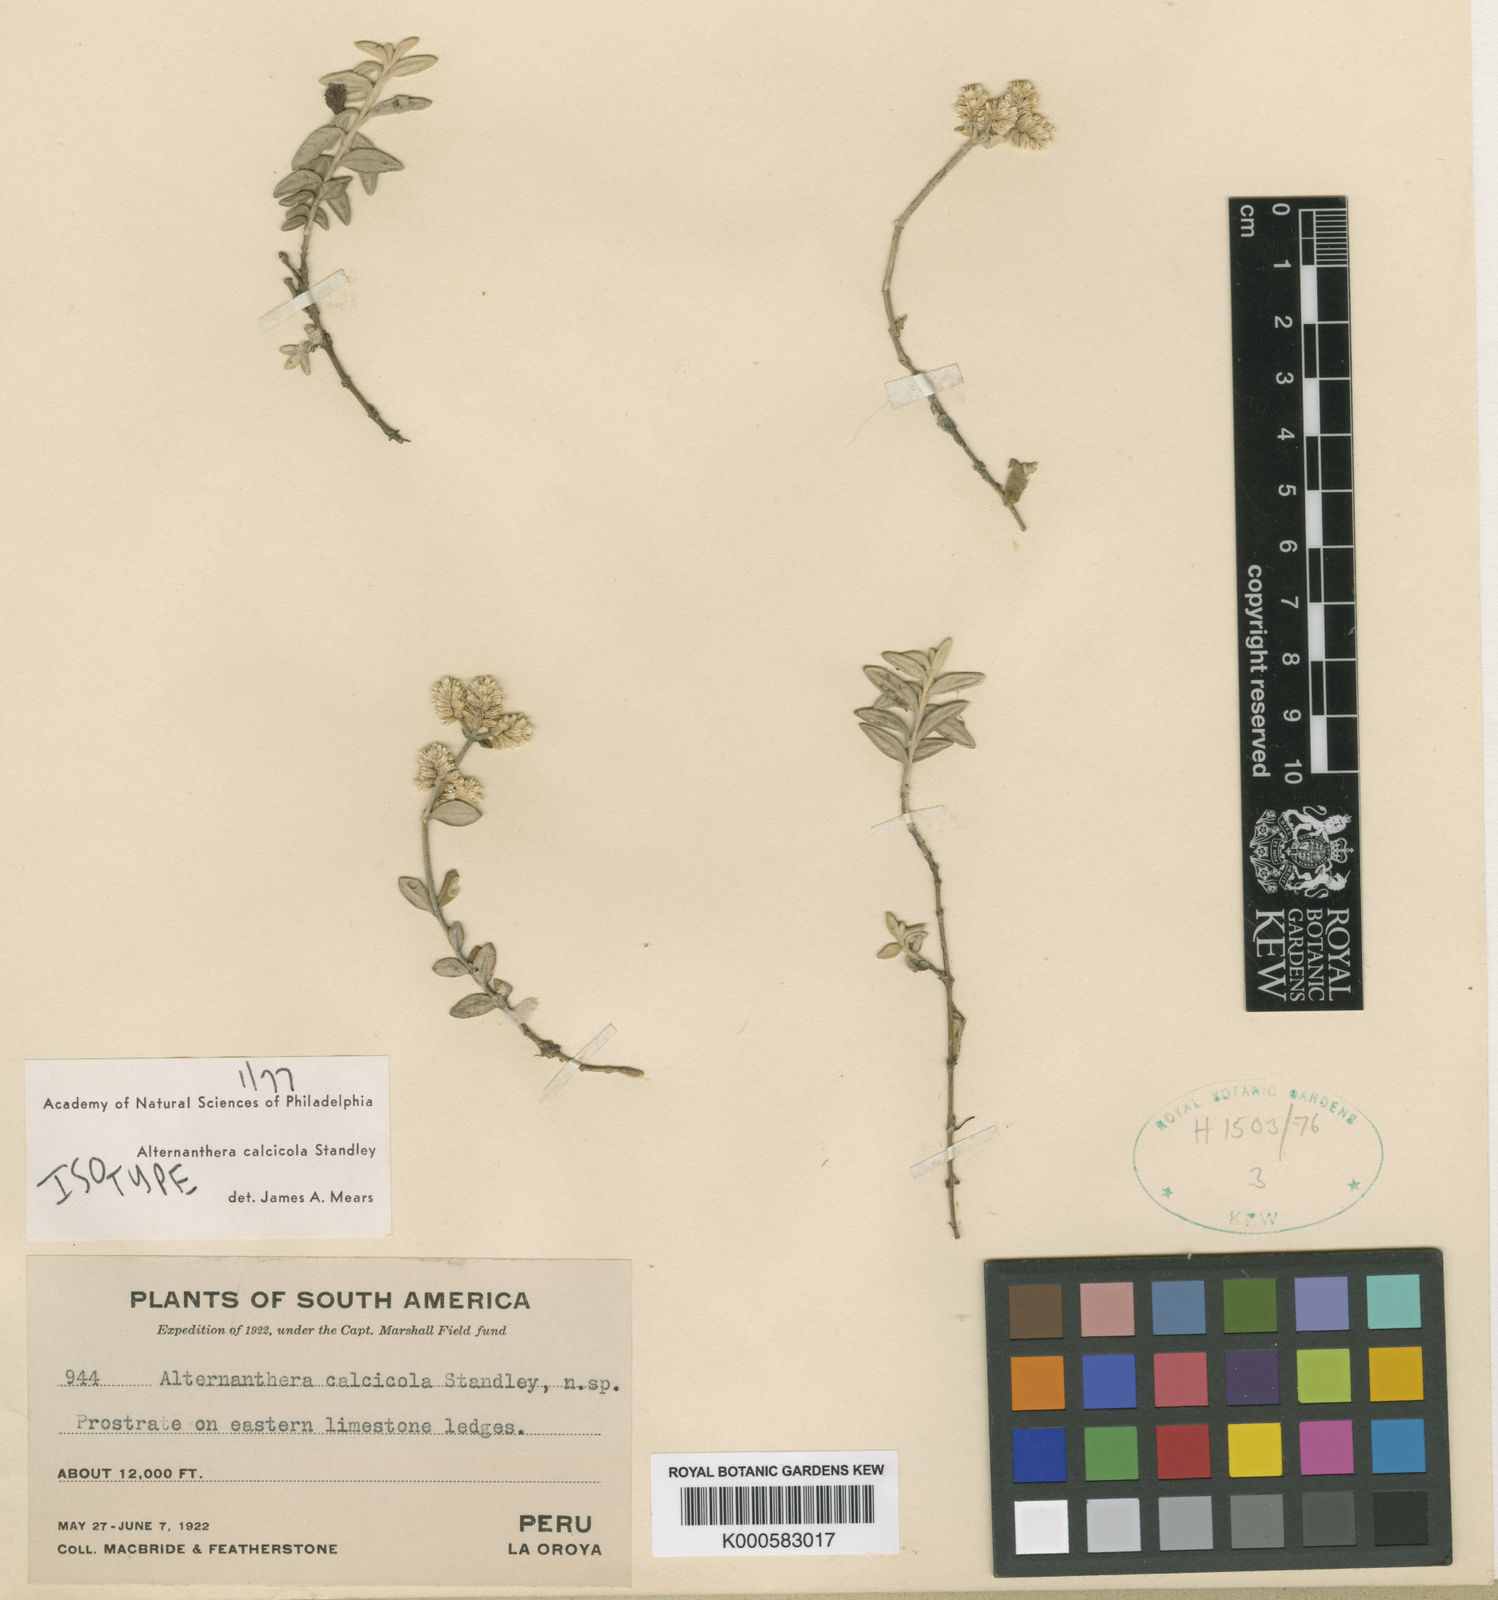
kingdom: Plantae
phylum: Tracheophyta
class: Magnoliopsida
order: Caryophyllales
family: Amaranthaceae
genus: Alternanthera
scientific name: Alternanthera calcicola
